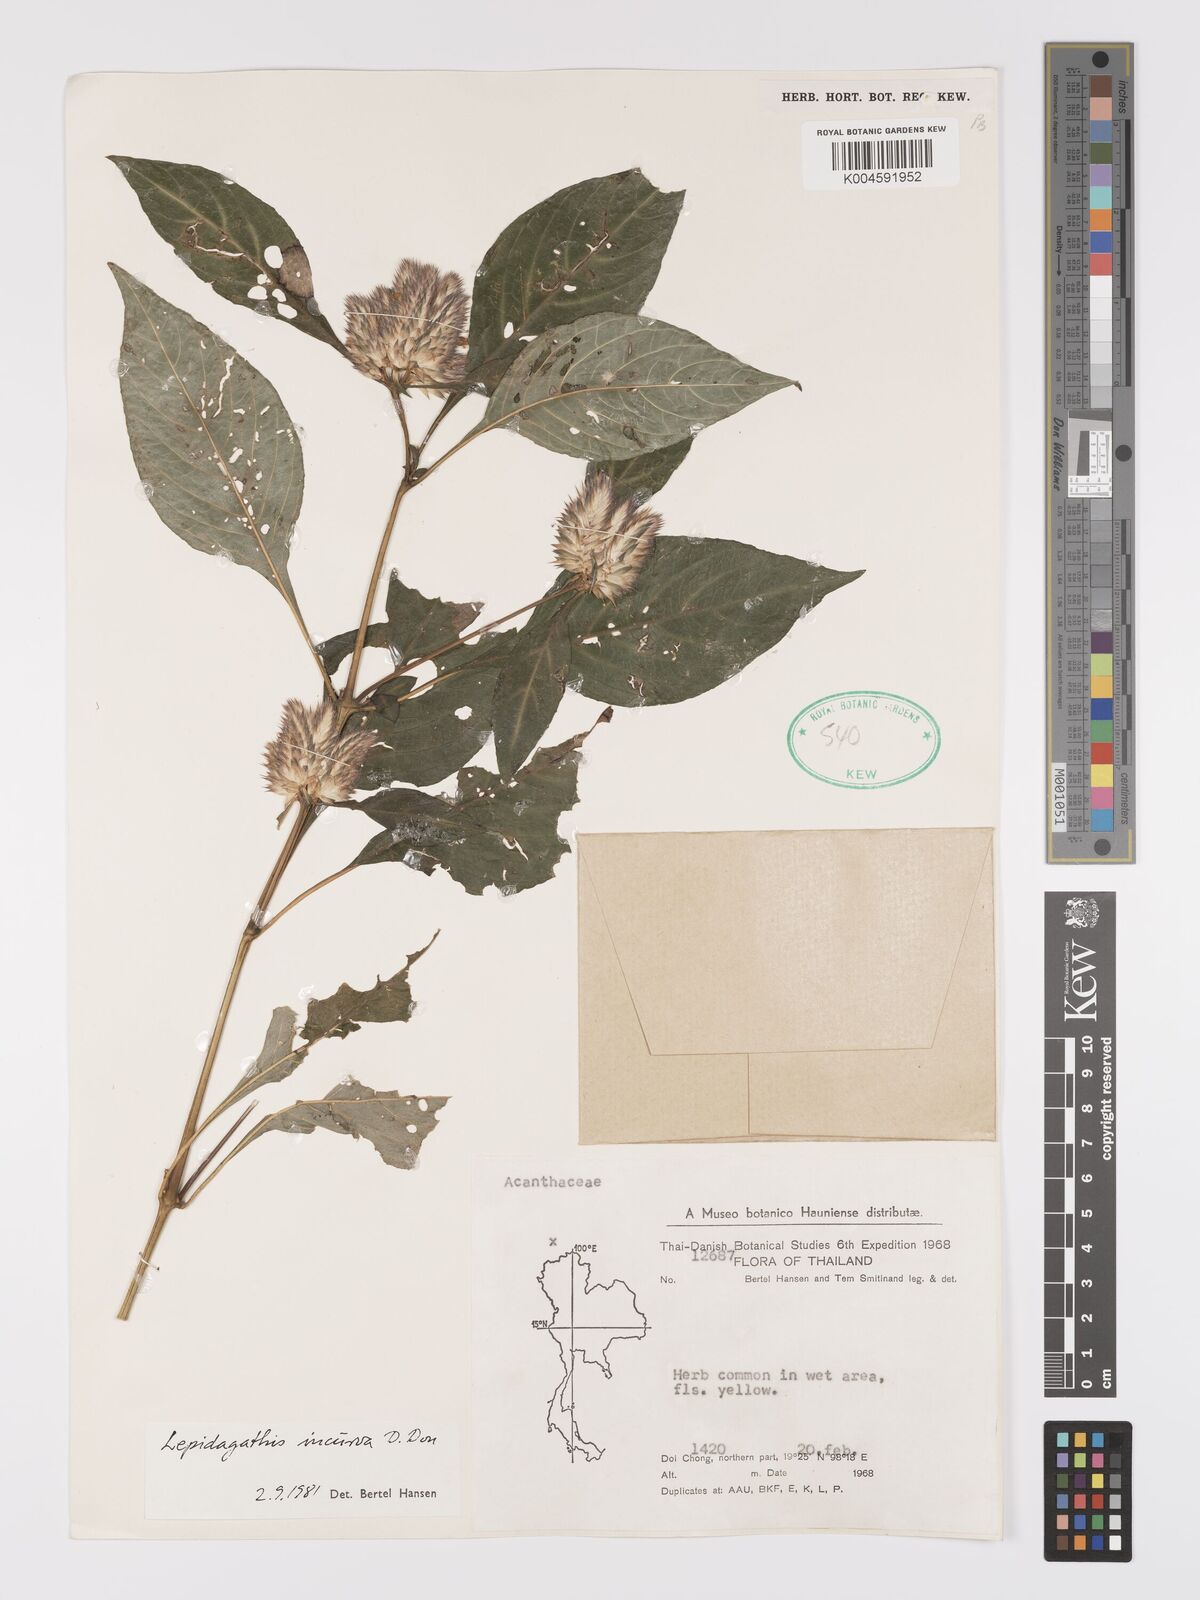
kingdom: Plantae
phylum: Tracheophyta
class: Magnoliopsida
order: Lamiales
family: Acanthaceae
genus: Lepidagathis
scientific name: Lepidagathis incurva
